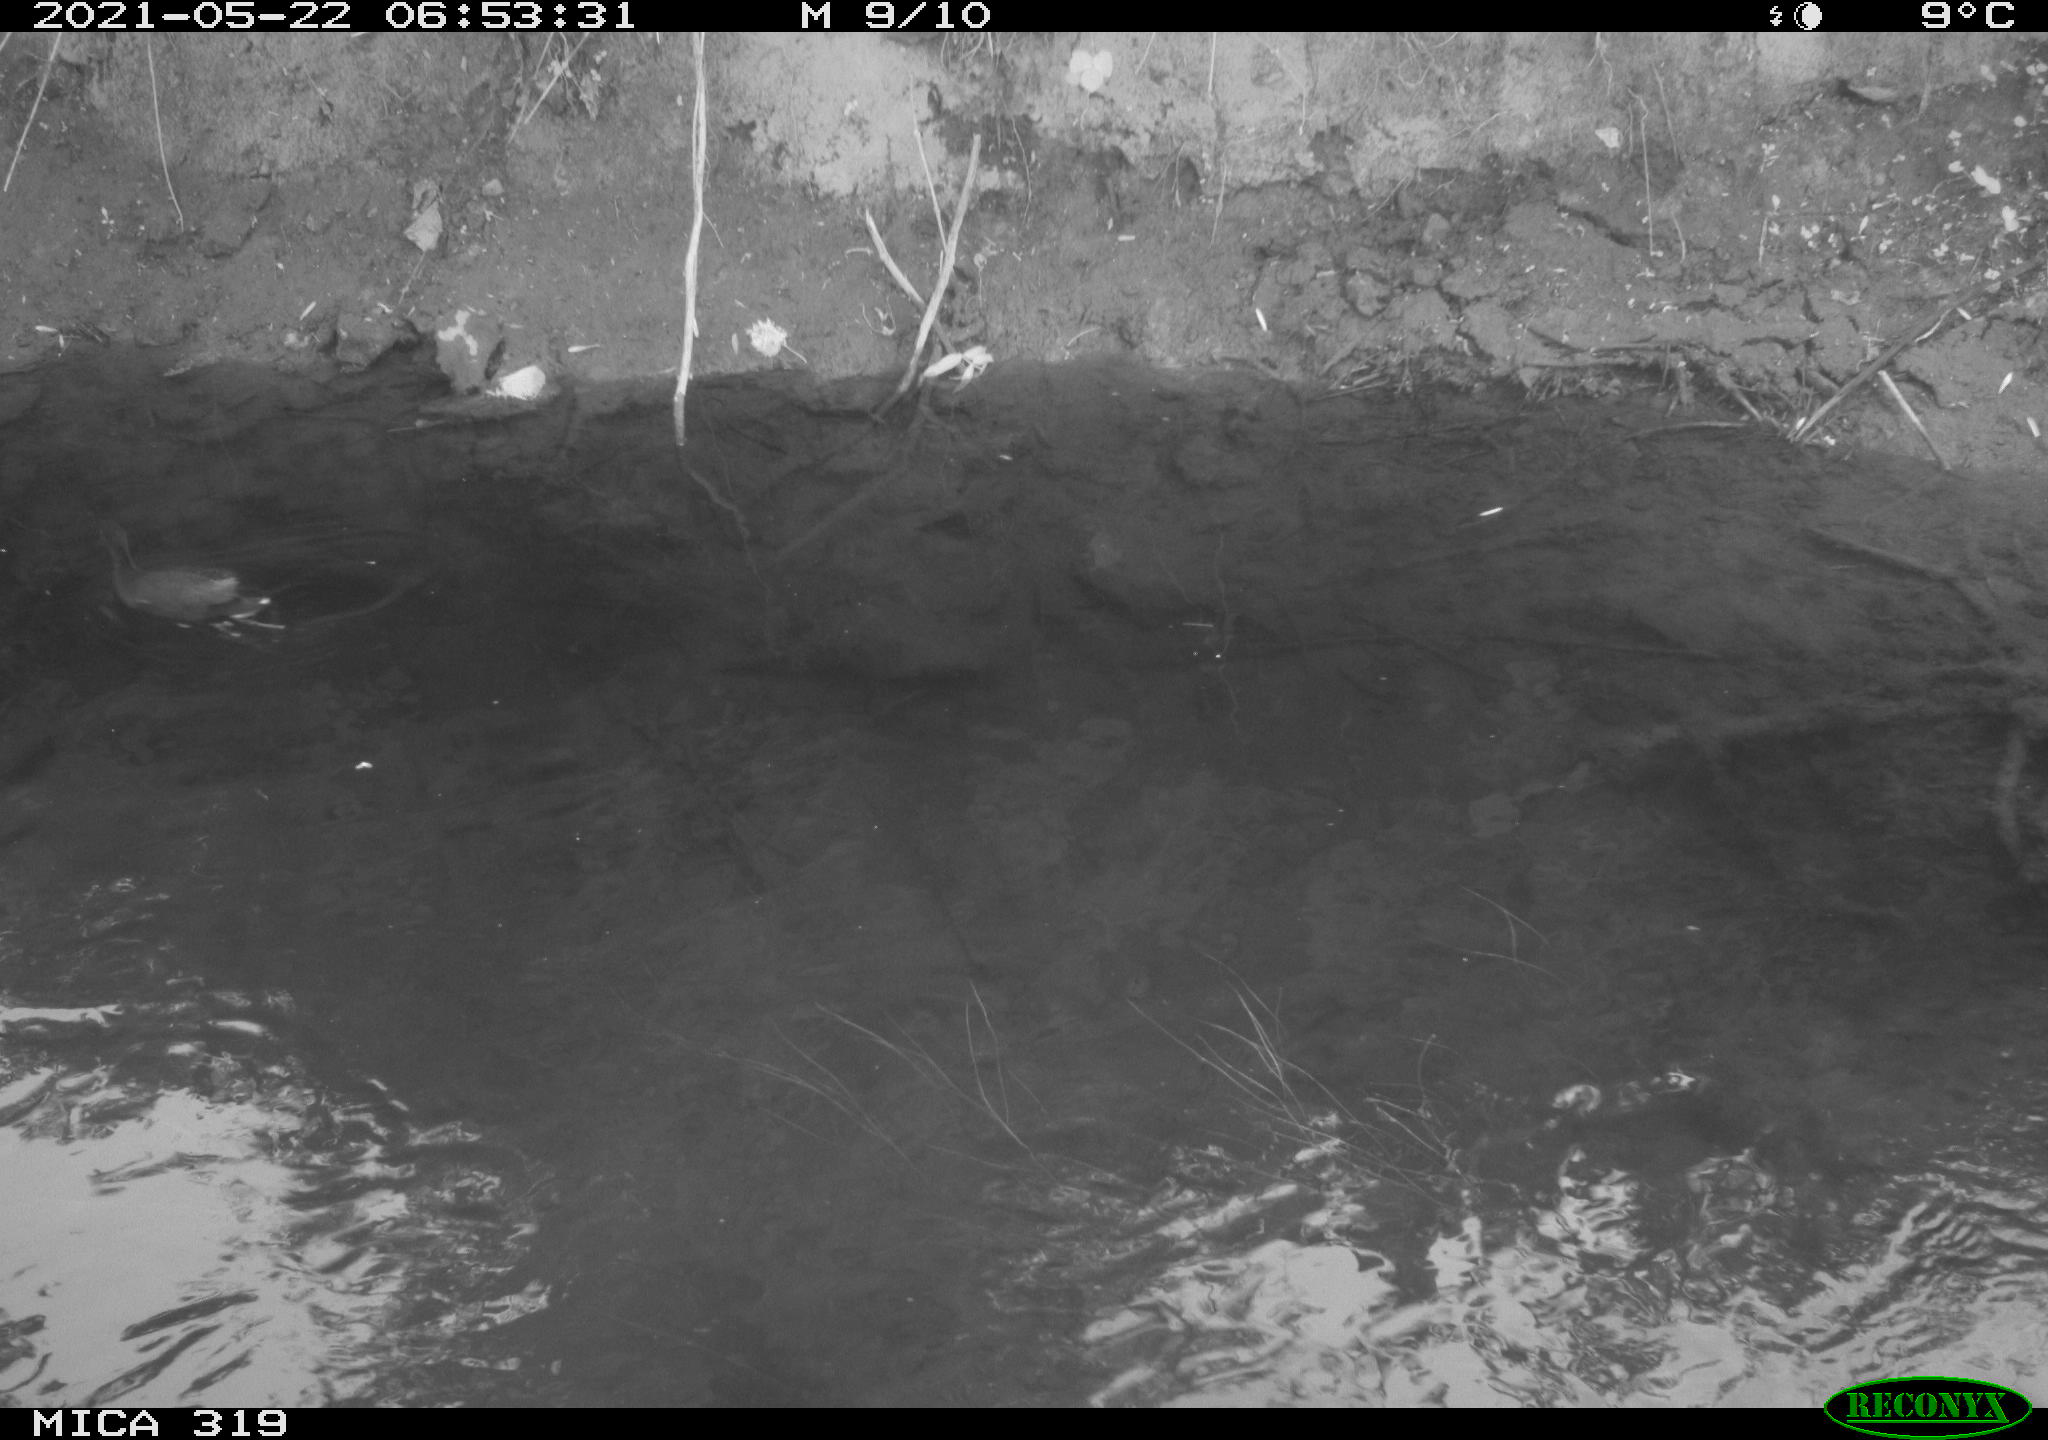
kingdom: Animalia
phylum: Chordata
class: Aves
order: Gruiformes
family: Rallidae
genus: Gallinula
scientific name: Gallinula chloropus
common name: Common moorhen
